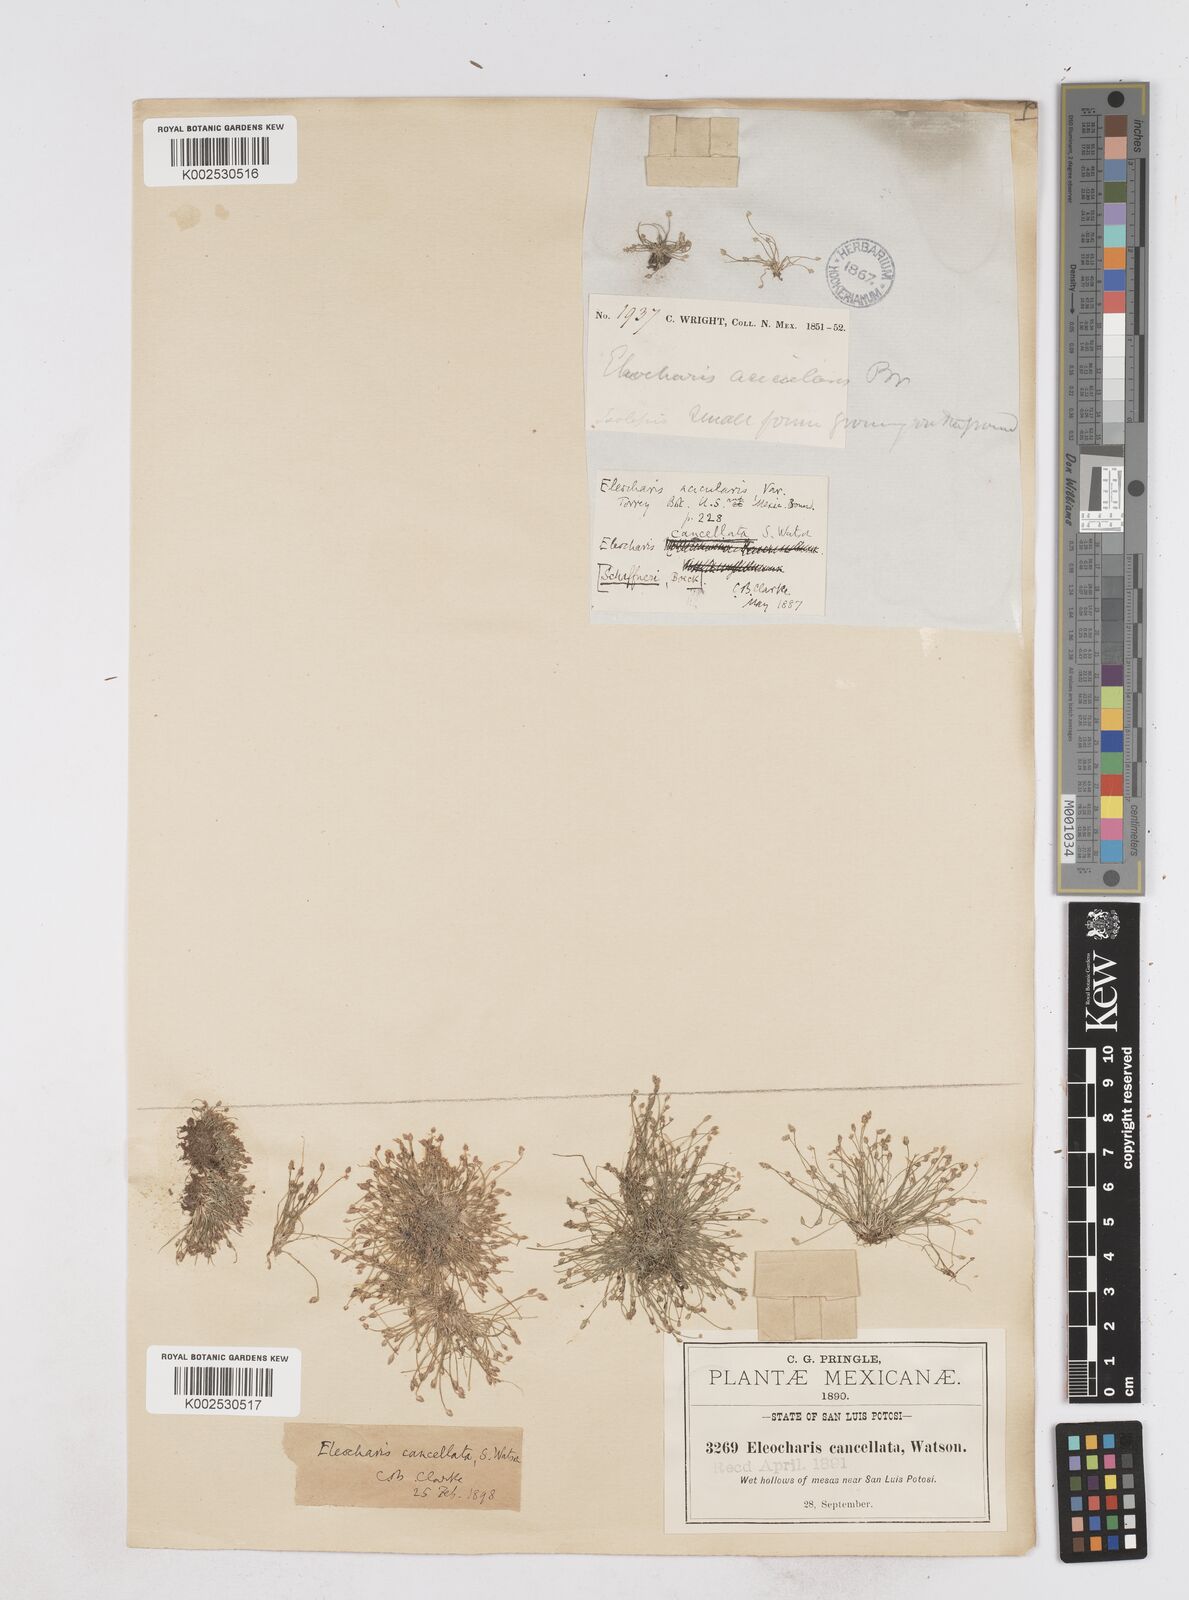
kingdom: Plantae
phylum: Tracheophyta
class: Liliopsida
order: Poales
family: Cyperaceae
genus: Eleocharis
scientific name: Eleocharis cancellata
